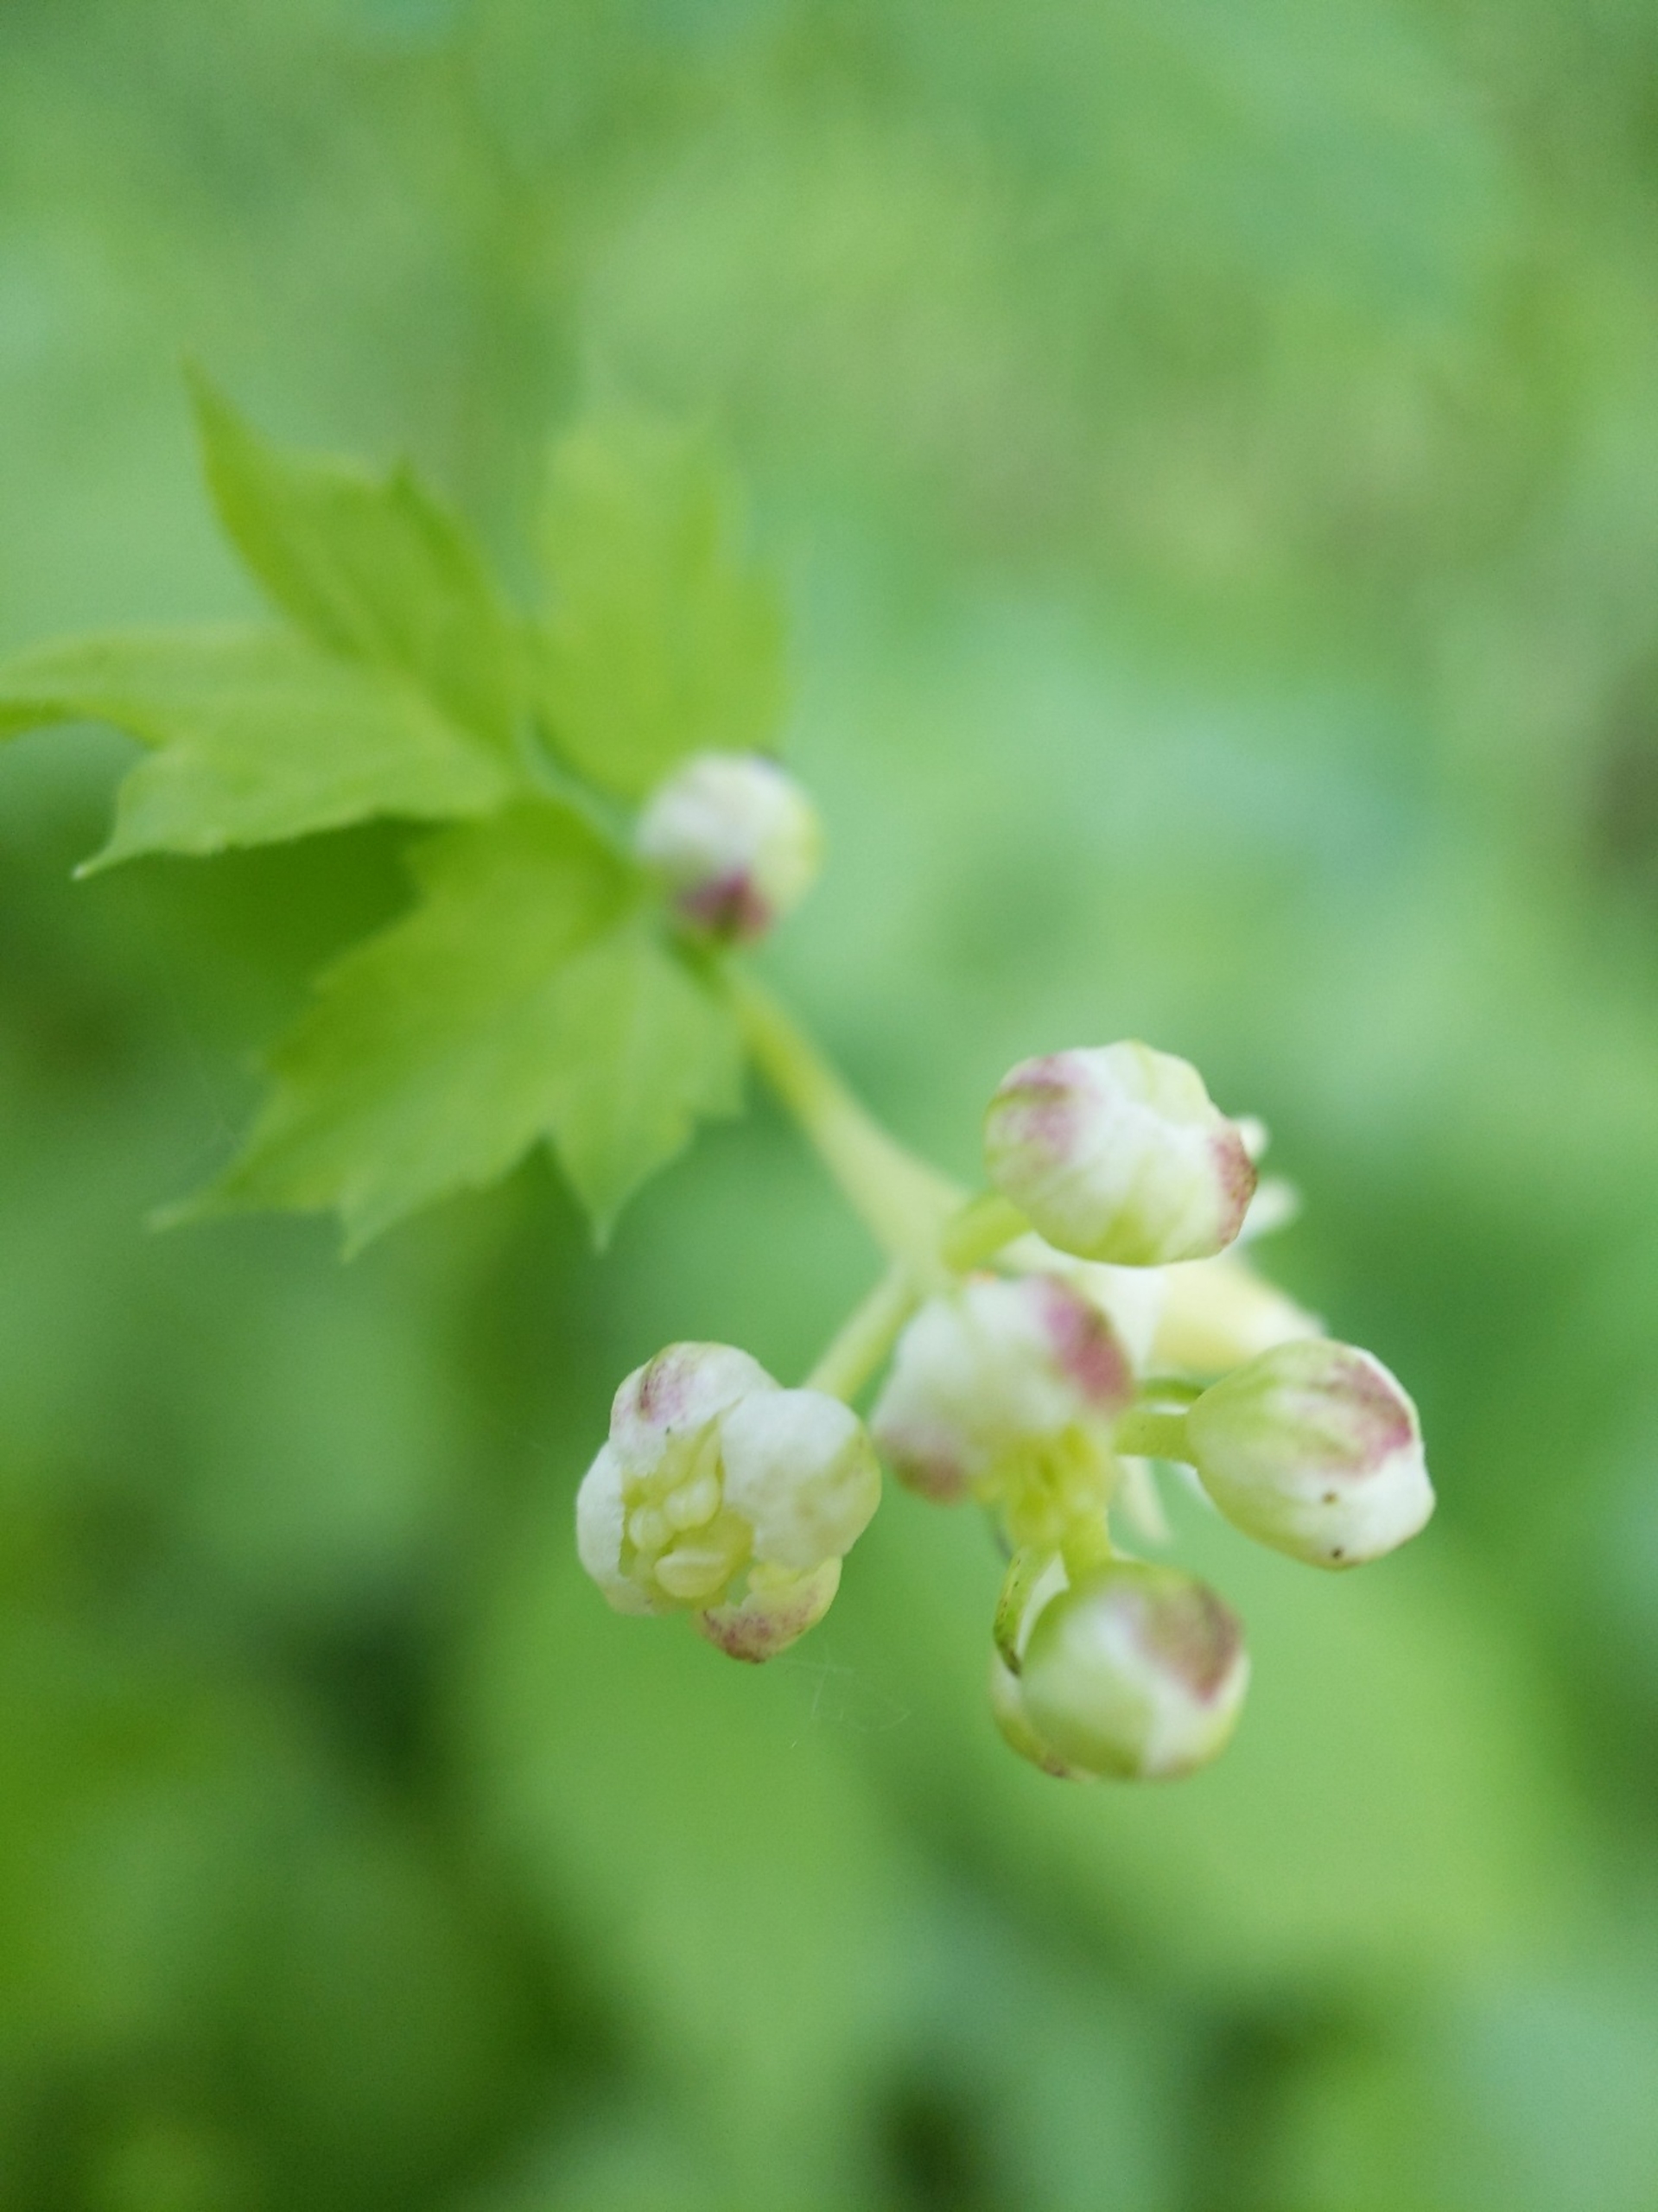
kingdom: Plantae
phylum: Tracheophyta
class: Magnoliopsida
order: Ranunculales
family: Ranunculaceae
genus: Actaea
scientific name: Actaea spicata
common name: Druemunke
